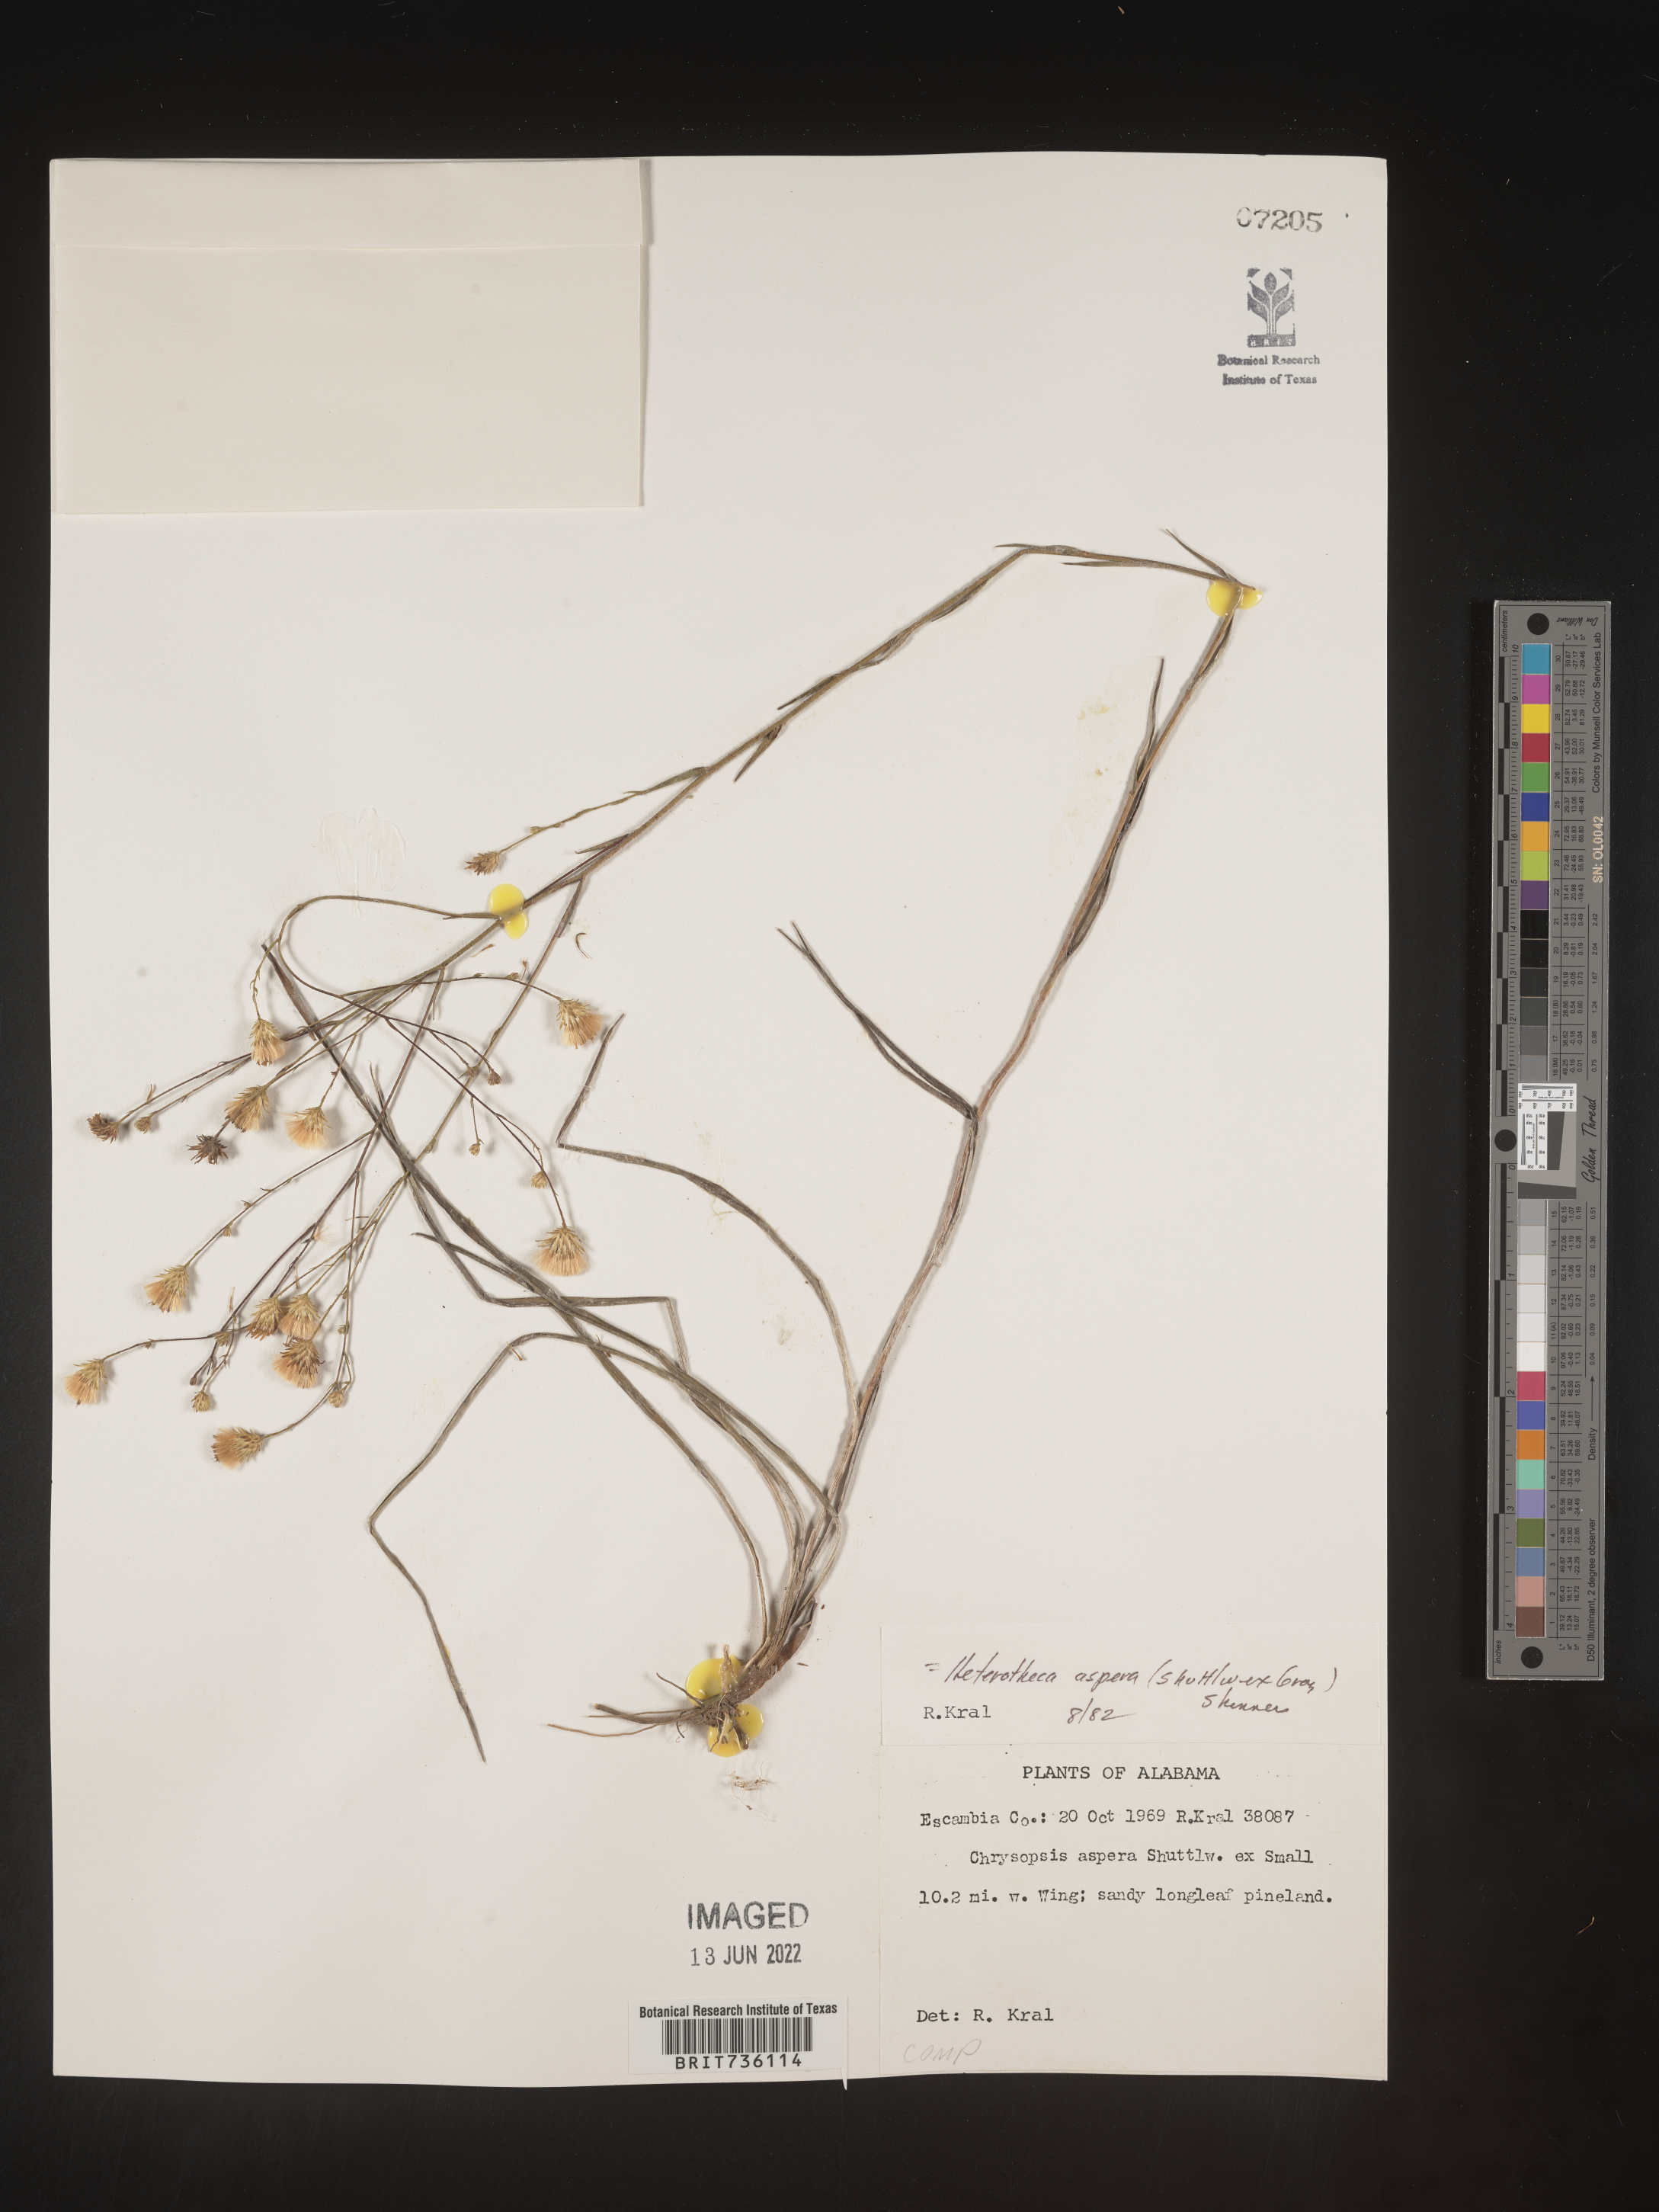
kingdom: Plantae
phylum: Tracheophyta
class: Magnoliopsida
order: Asterales
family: Asteraceae
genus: Pityopsis
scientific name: Pityopsis aspera
